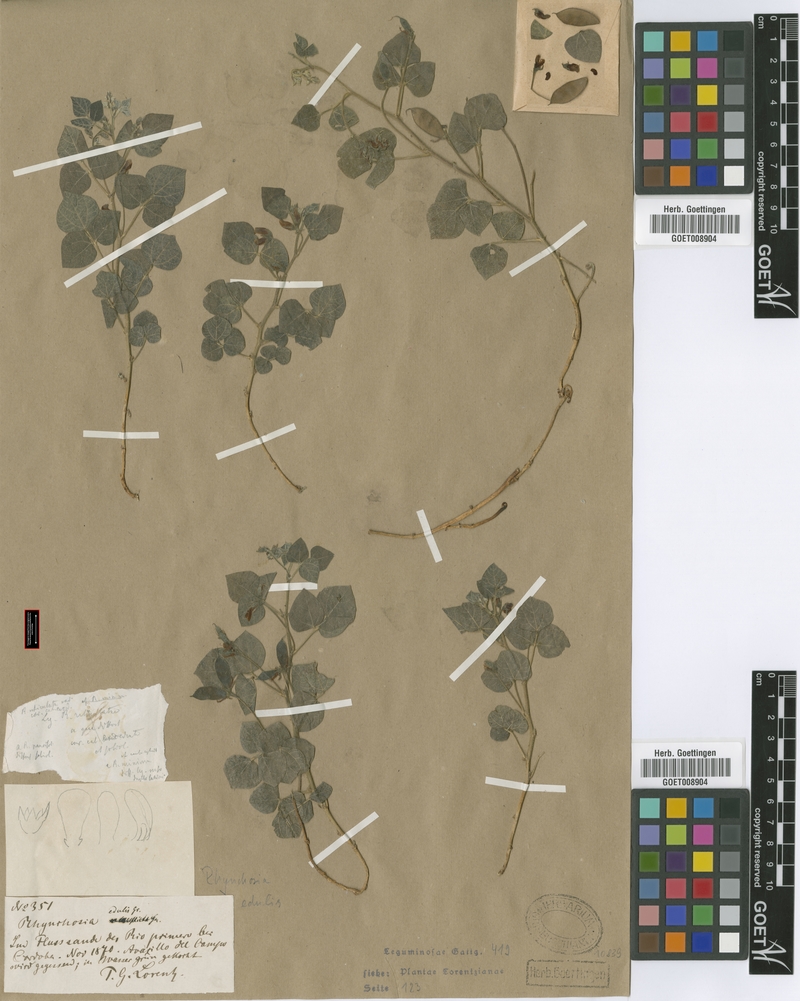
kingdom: Plantae
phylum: Tracheophyta
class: Magnoliopsida
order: Fabales
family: Fabaceae
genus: Rhynchosia
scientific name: Rhynchosia edulis
